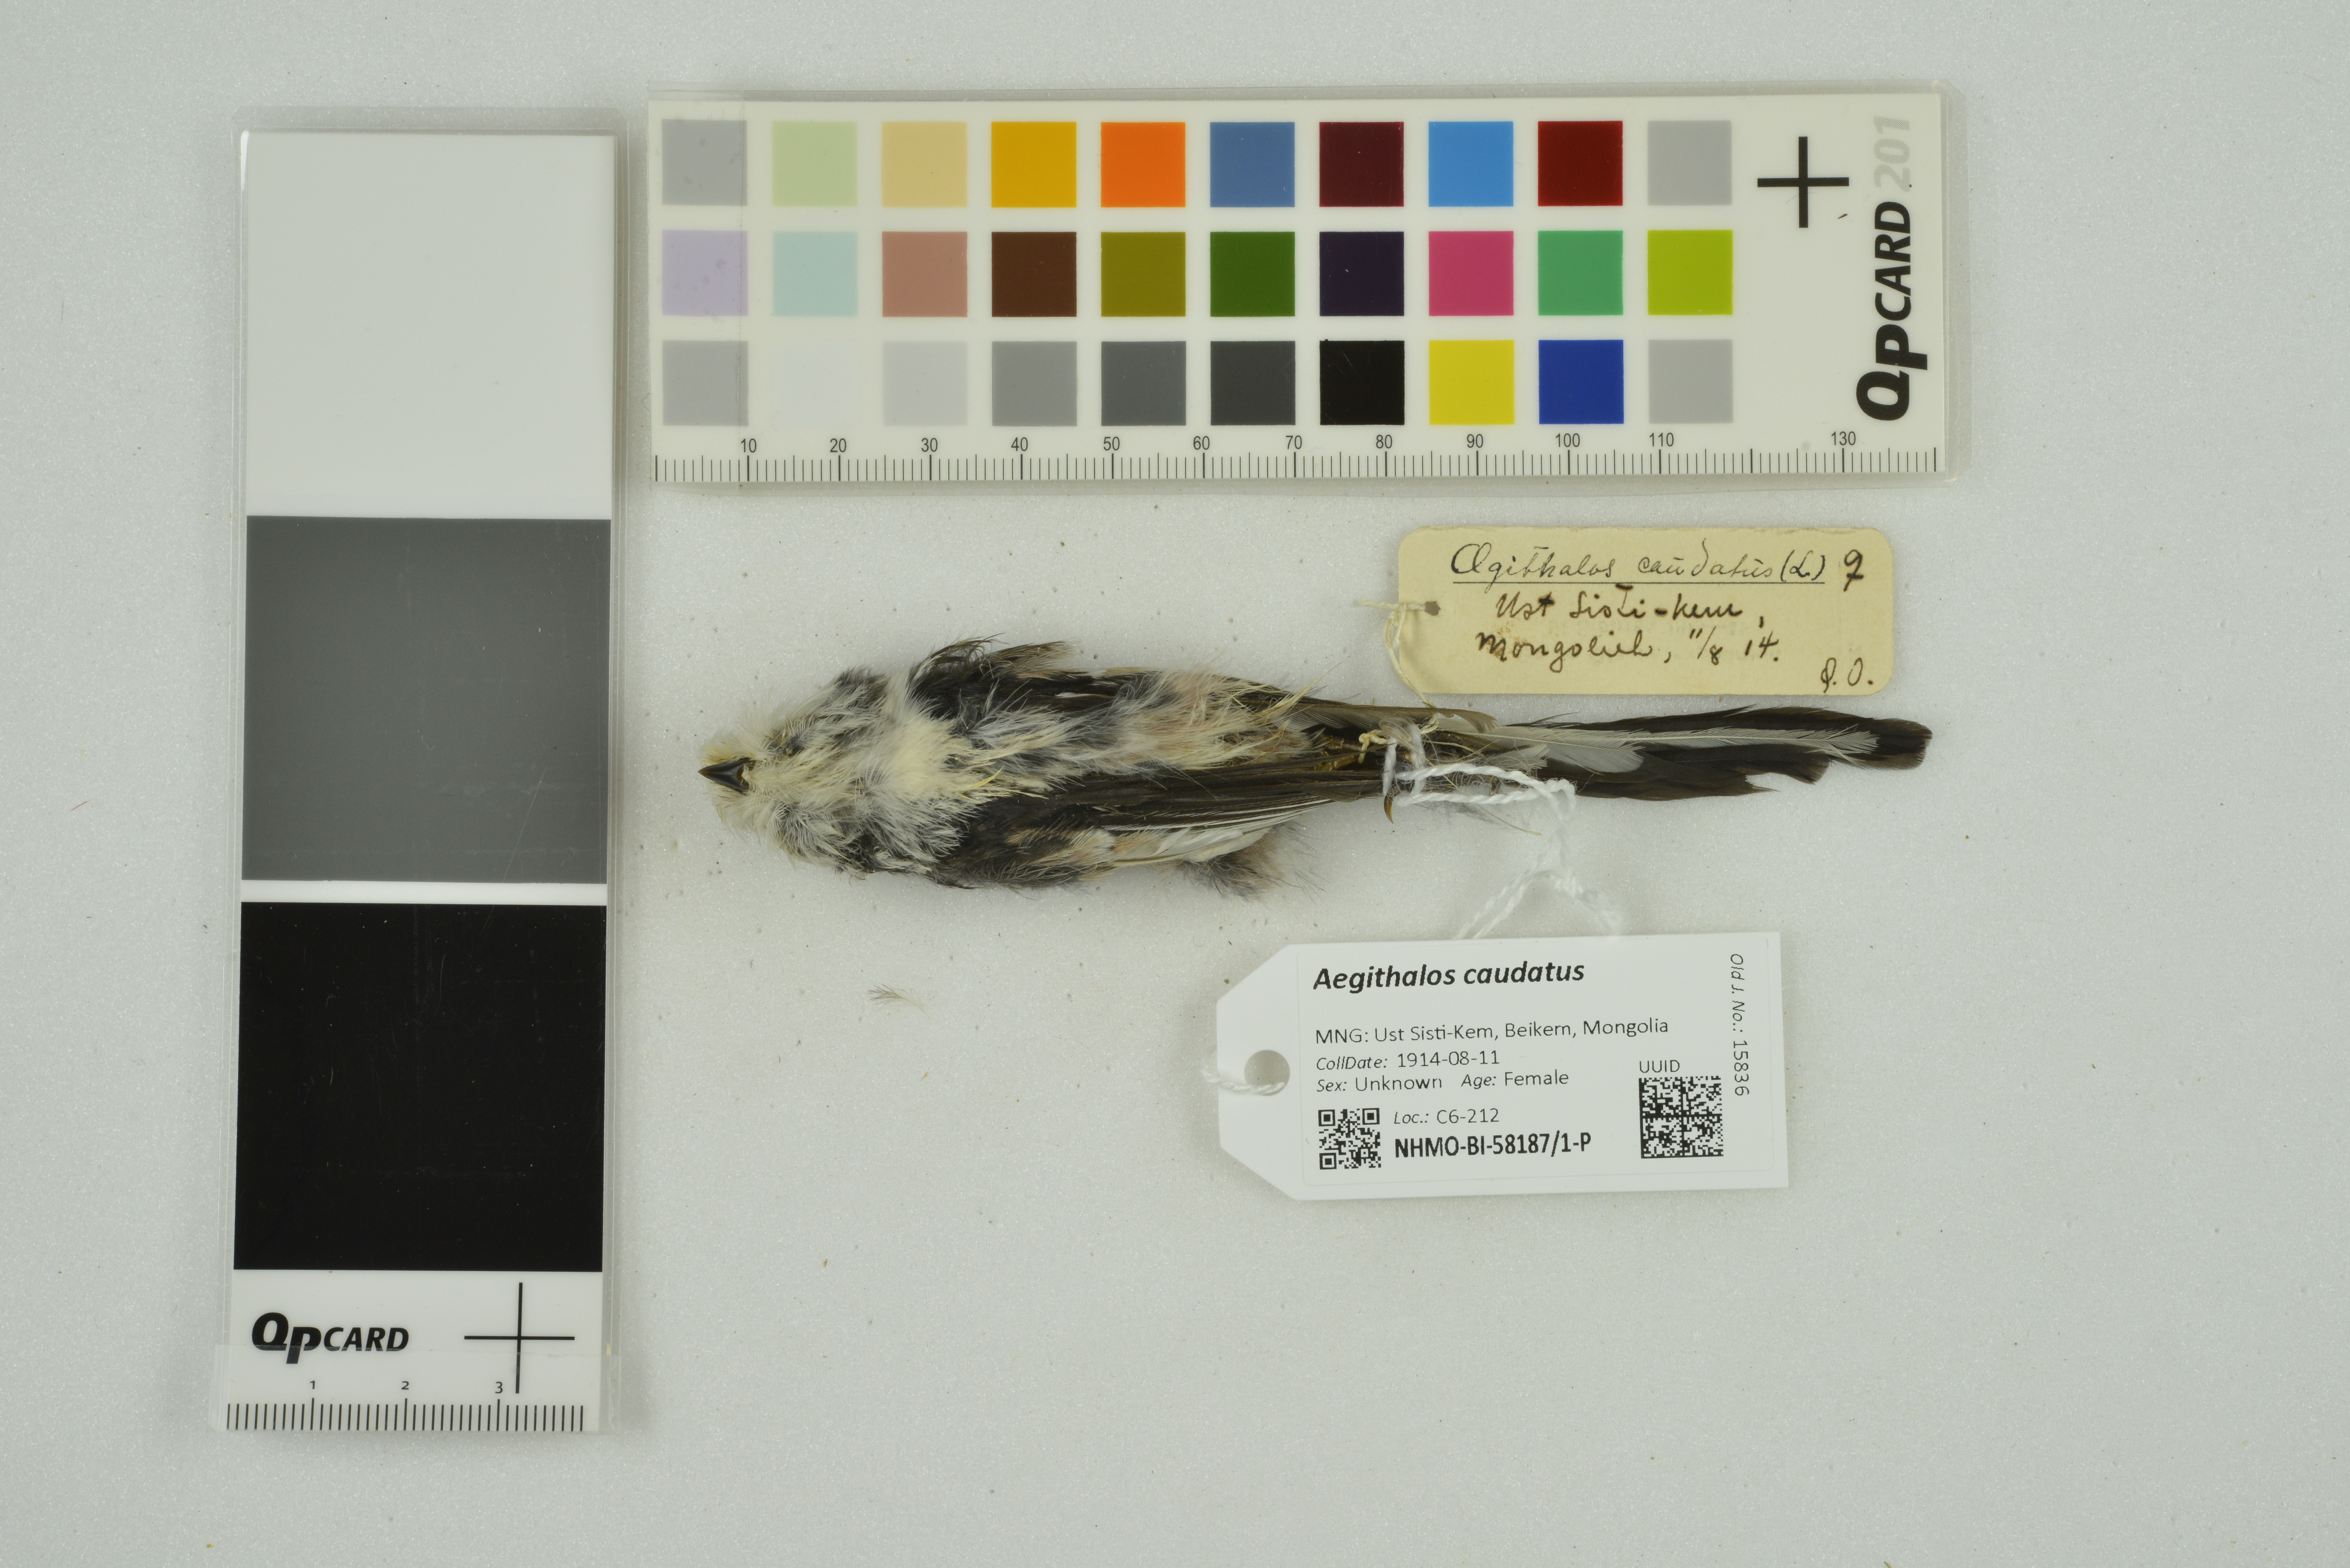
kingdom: Animalia
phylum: Chordata
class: Aves
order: Passeriformes
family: Aegithalidae
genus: Aegithalos
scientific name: Aegithalos caudatus
